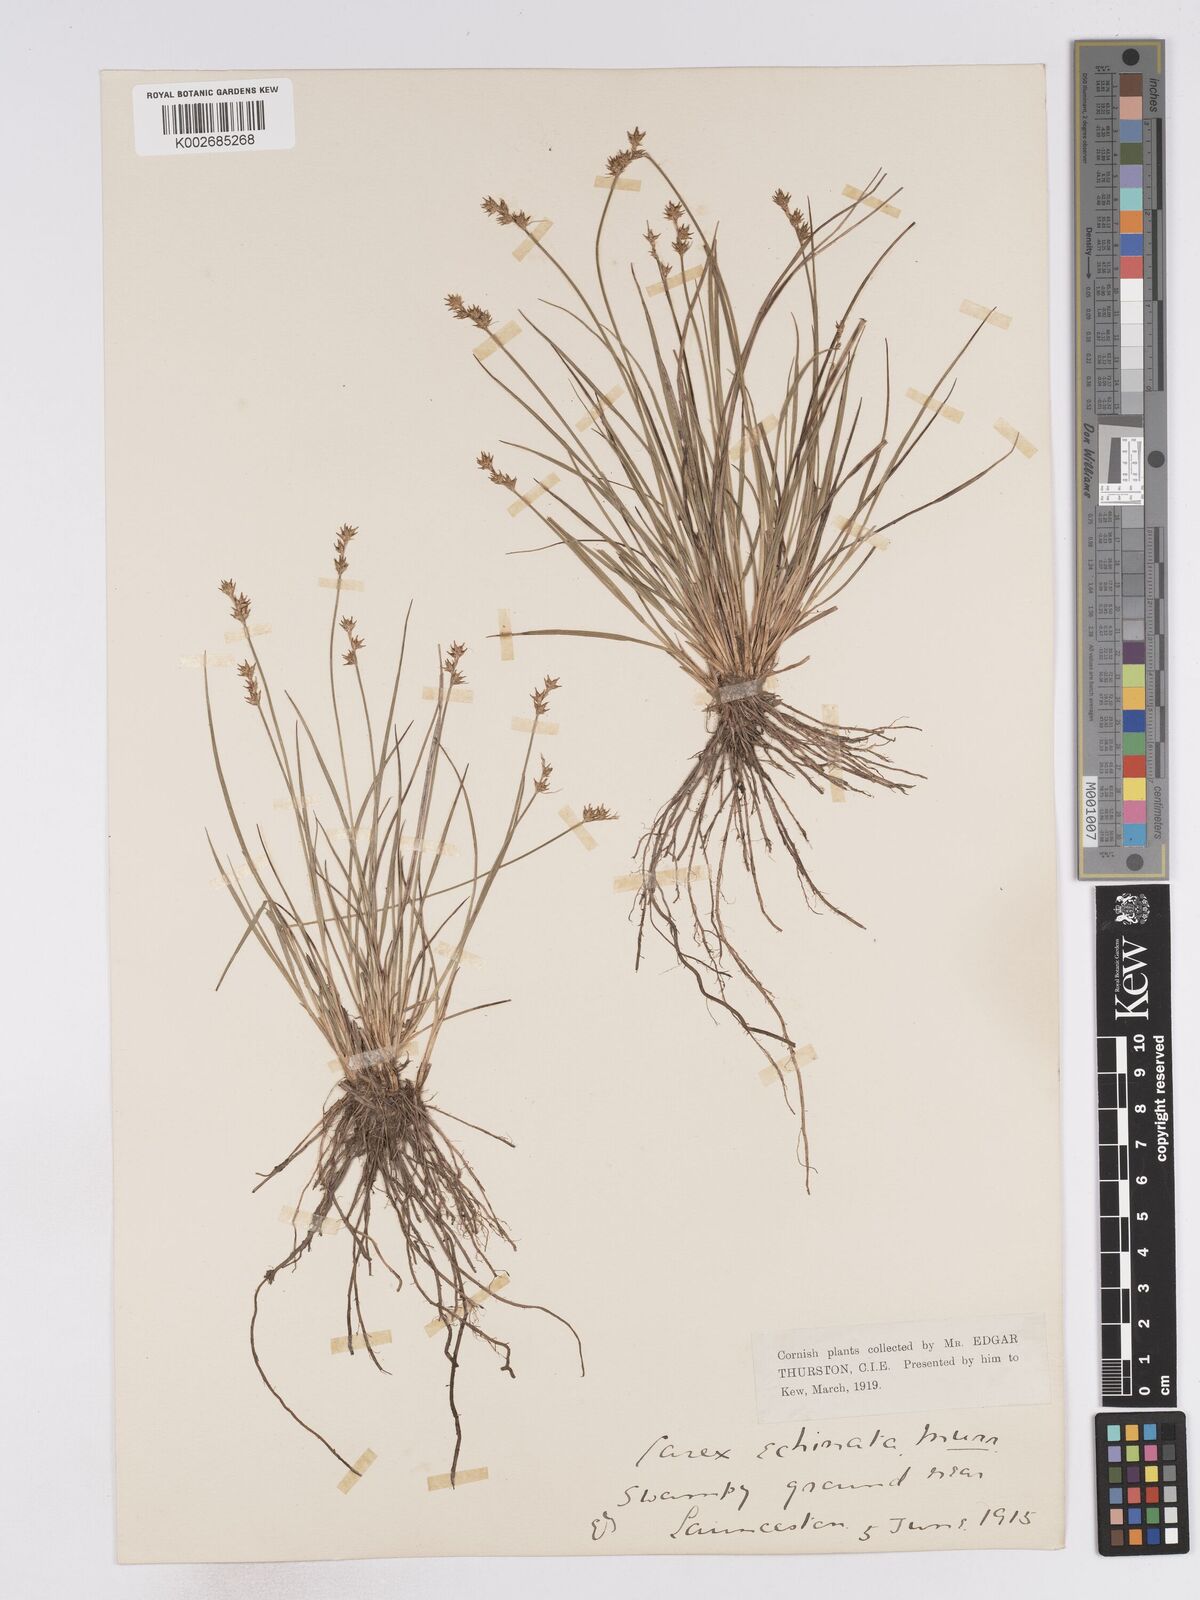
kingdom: Plantae
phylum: Tracheophyta
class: Liliopsida
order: Poales
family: Cyperaceae
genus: Carex
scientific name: Carex echinata
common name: Star sedge
